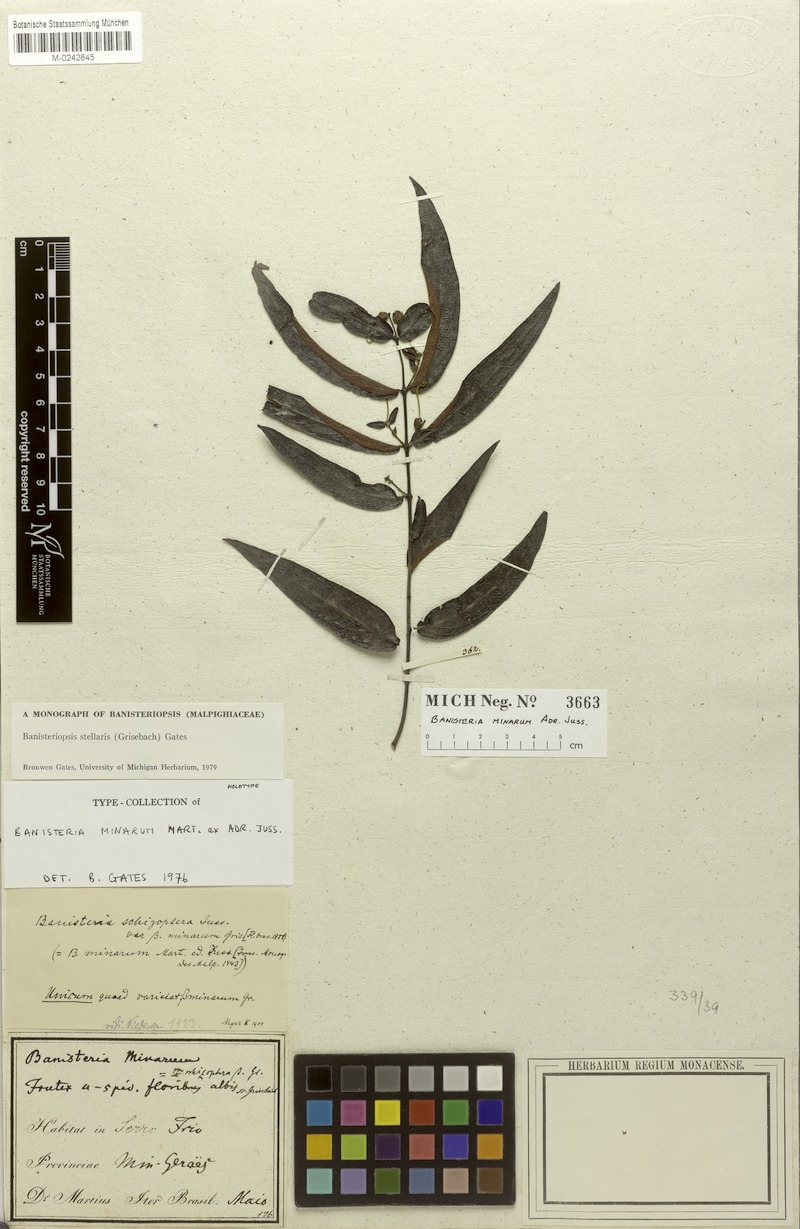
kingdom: Plantae
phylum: Tracheophyta
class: Magnoliopsida
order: Malpighiales
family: Malpighiaceae
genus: Banisteriopsis
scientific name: Banisteriopsis stellaris
